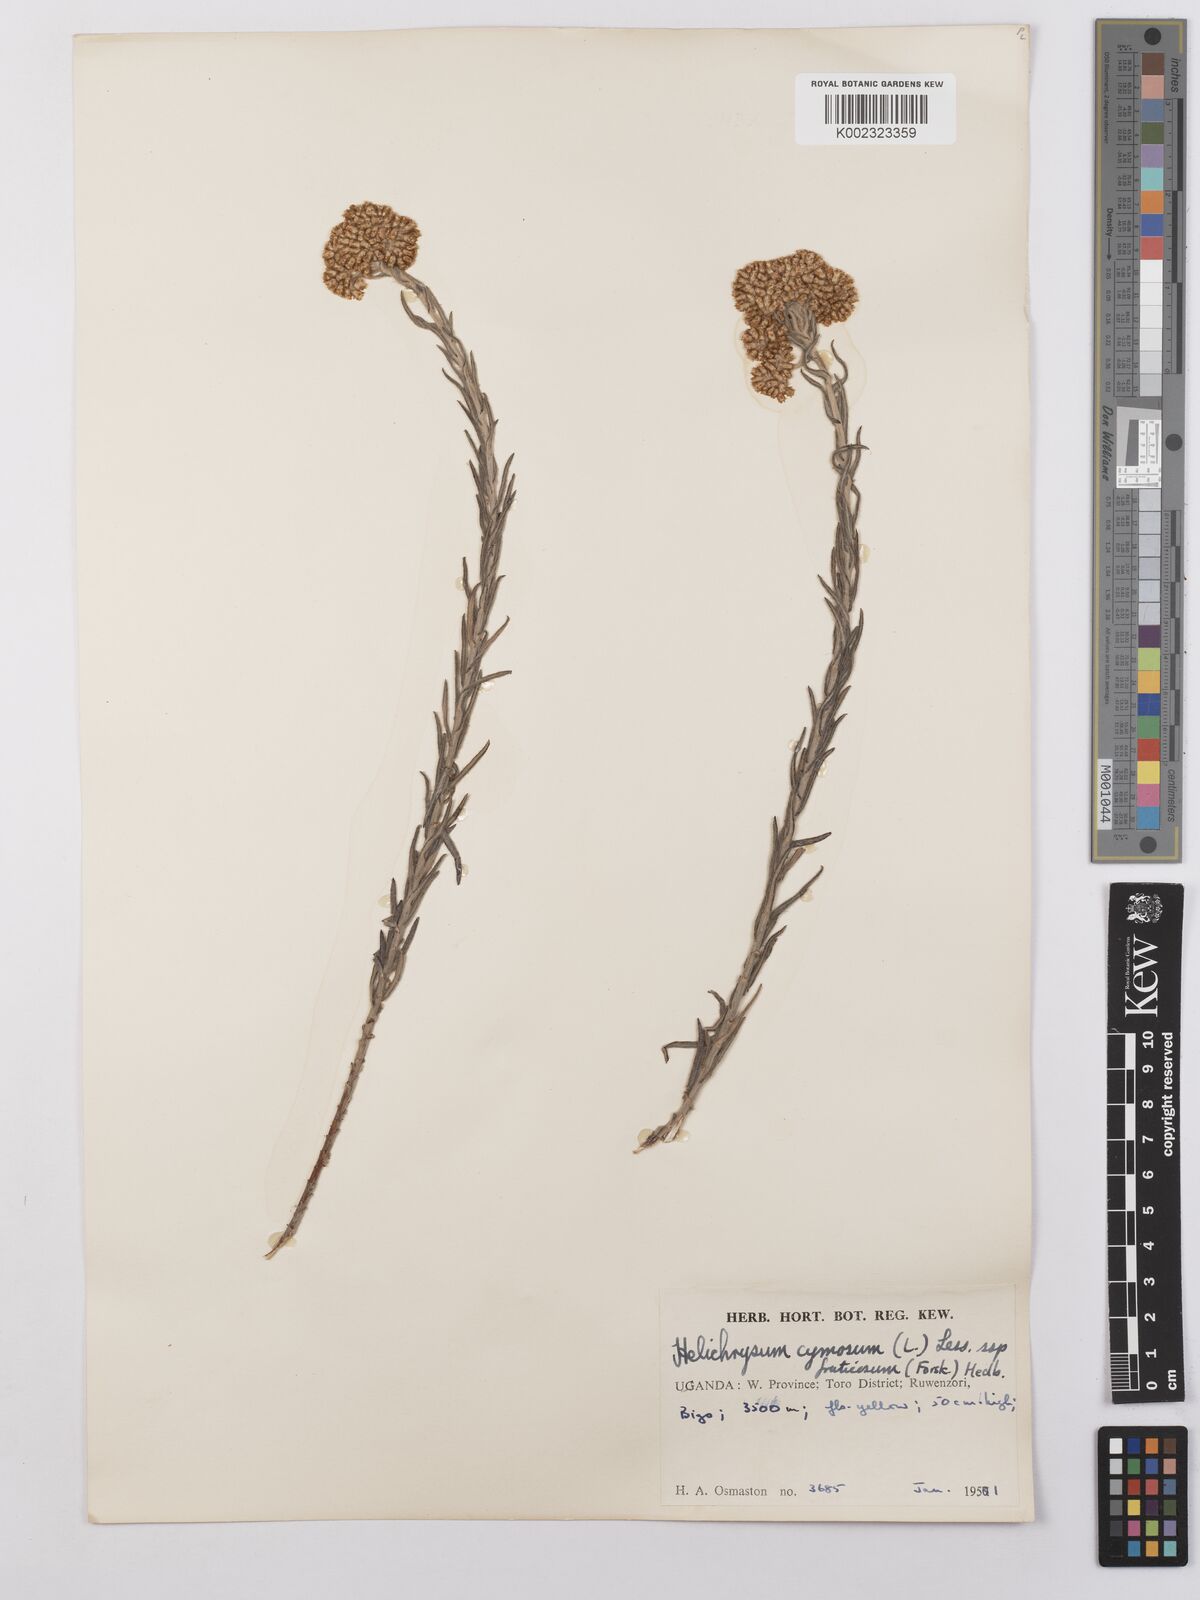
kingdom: Plantae
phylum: Tracheophyta
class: Magnoliopsida
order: Asterales
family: Asteraceae
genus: Helichrysum
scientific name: Helichrysum forskahlii
